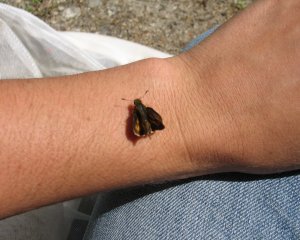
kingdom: Animalia
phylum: Arthropoda
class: Insecta
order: Lepidoptera
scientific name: Lepidoptera
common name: Butterflies
